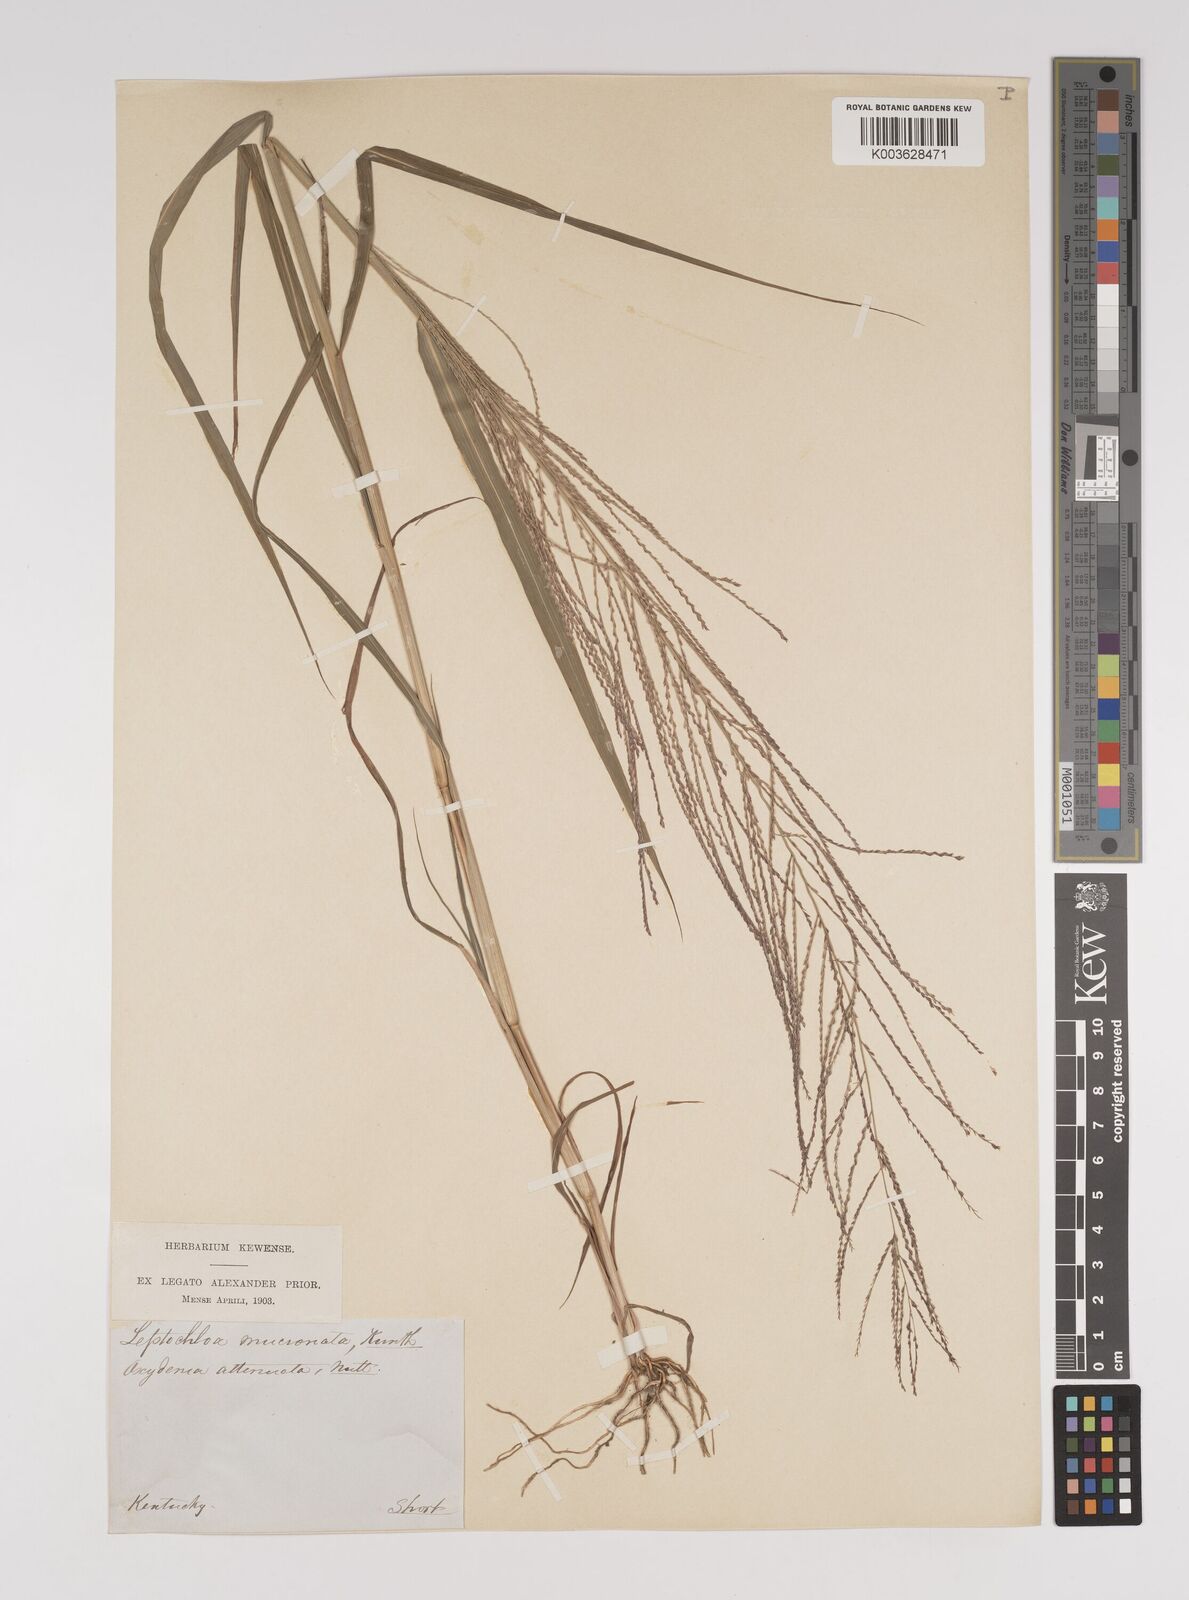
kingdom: Plantae
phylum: Tracheophyta
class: Liliopsida
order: Poales
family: Poaceae
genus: Leptochloa
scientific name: Leptochloa panicea
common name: Mucronate sprangletop
